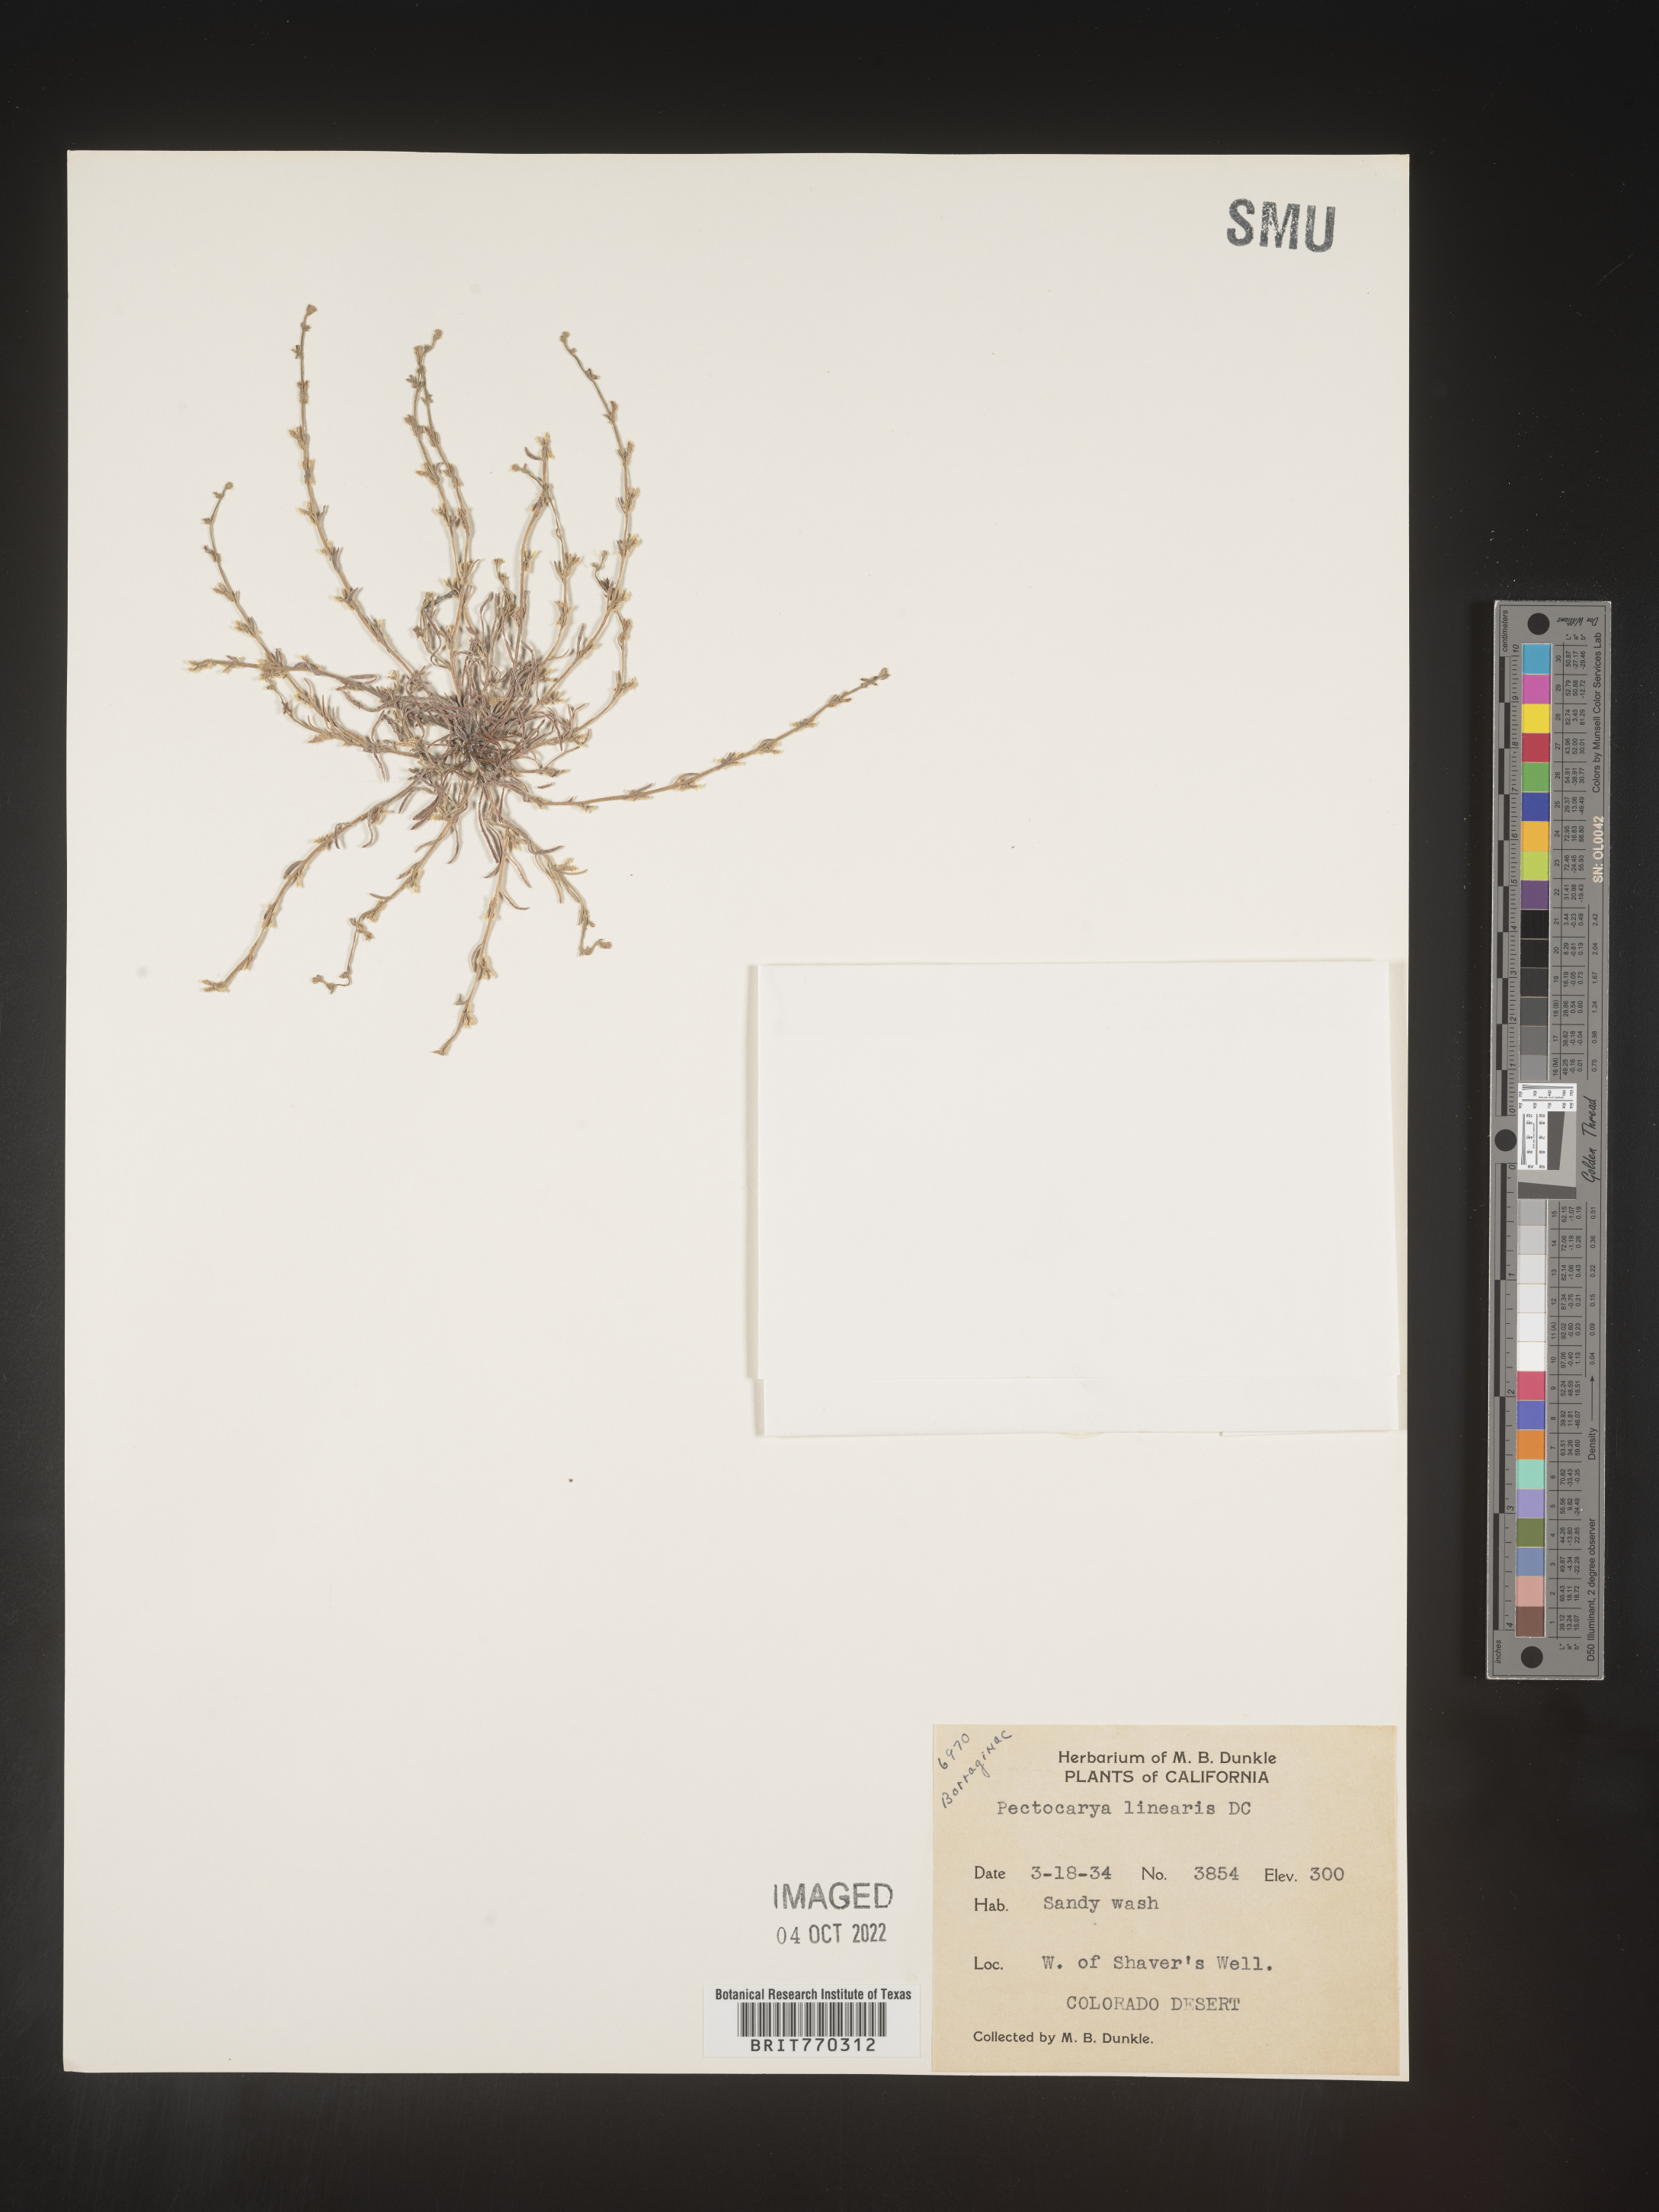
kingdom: Plantae
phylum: Tracheophyta
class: Magnoliopsida
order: Boraginales
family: Boraginaceae
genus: Pectocarya
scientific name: Pectocarya
